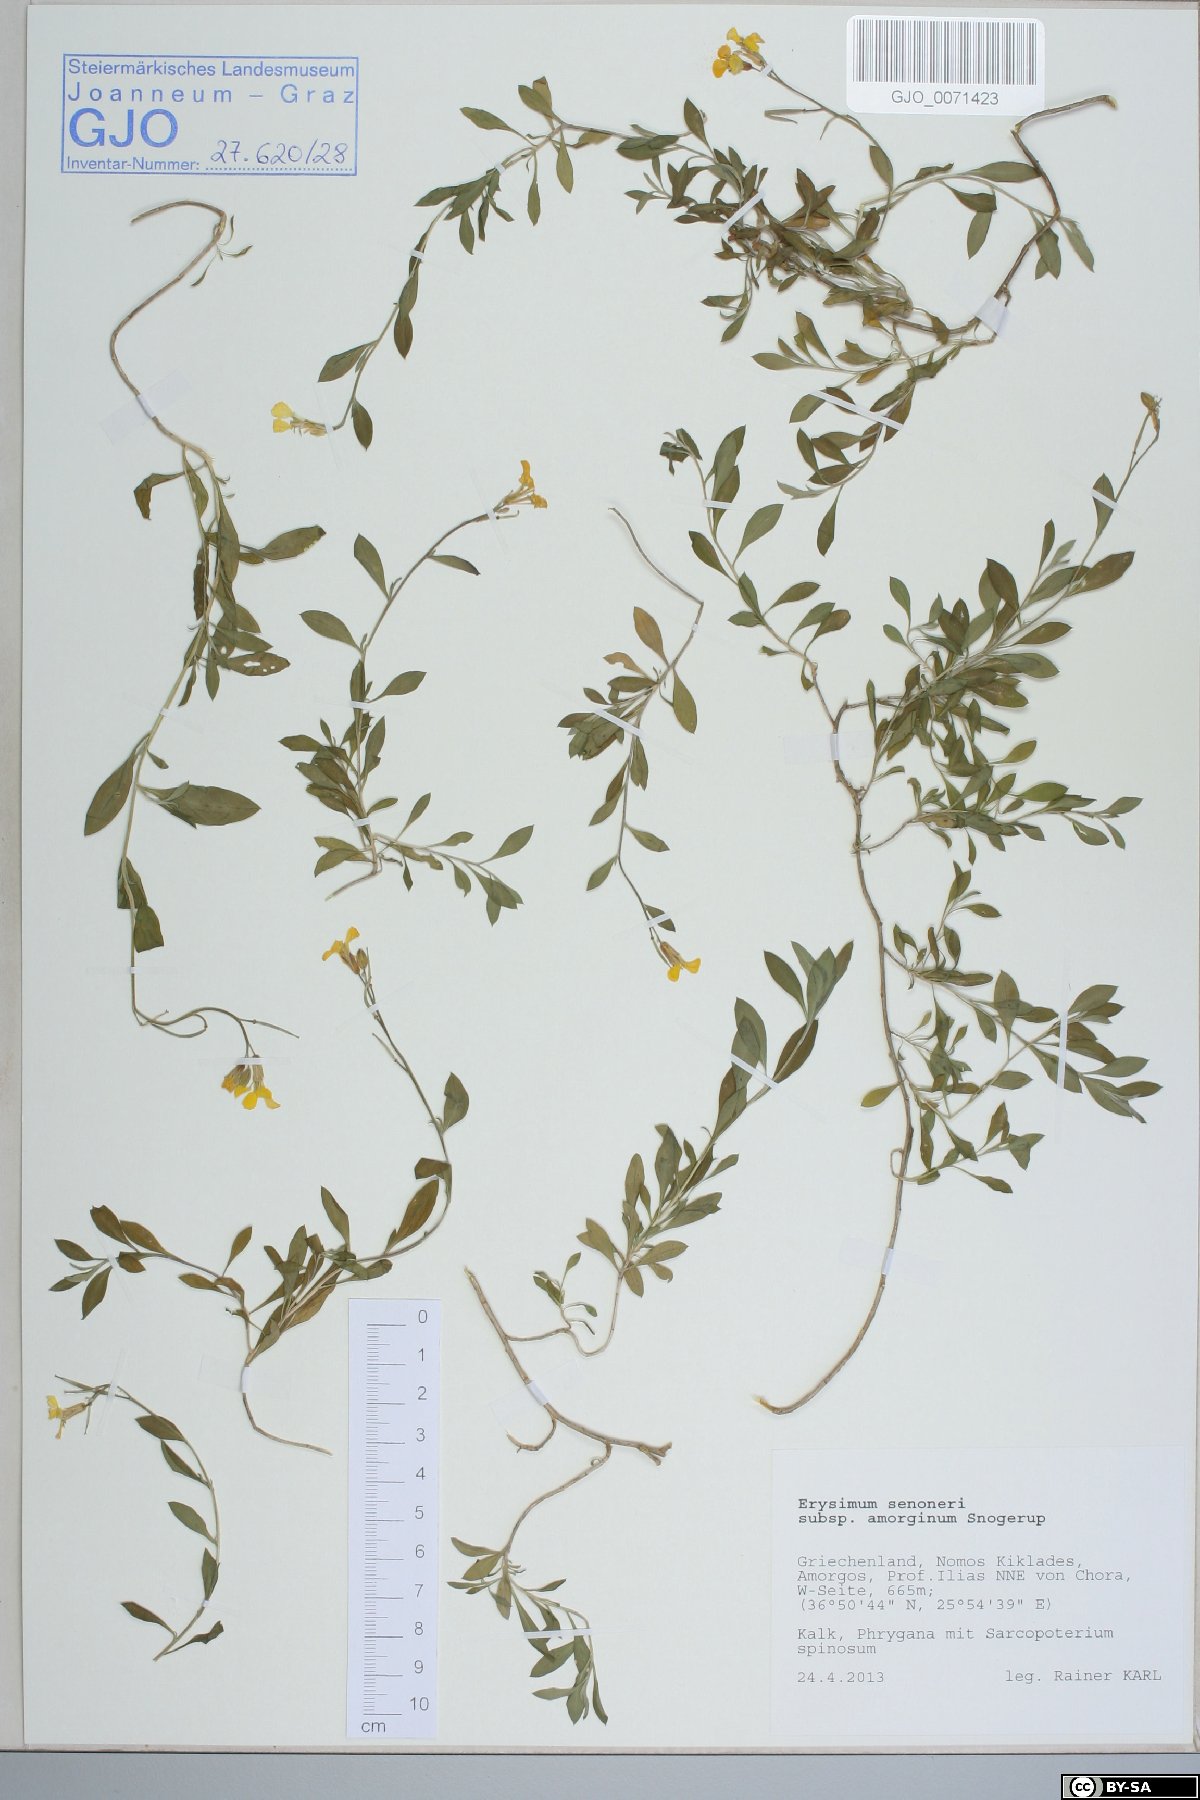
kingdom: Plantae
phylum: Tracheophyta
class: Magnoliopsida
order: Brassicales
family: Brassicaceae
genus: Erysimum
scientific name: Erysimum senoneri
